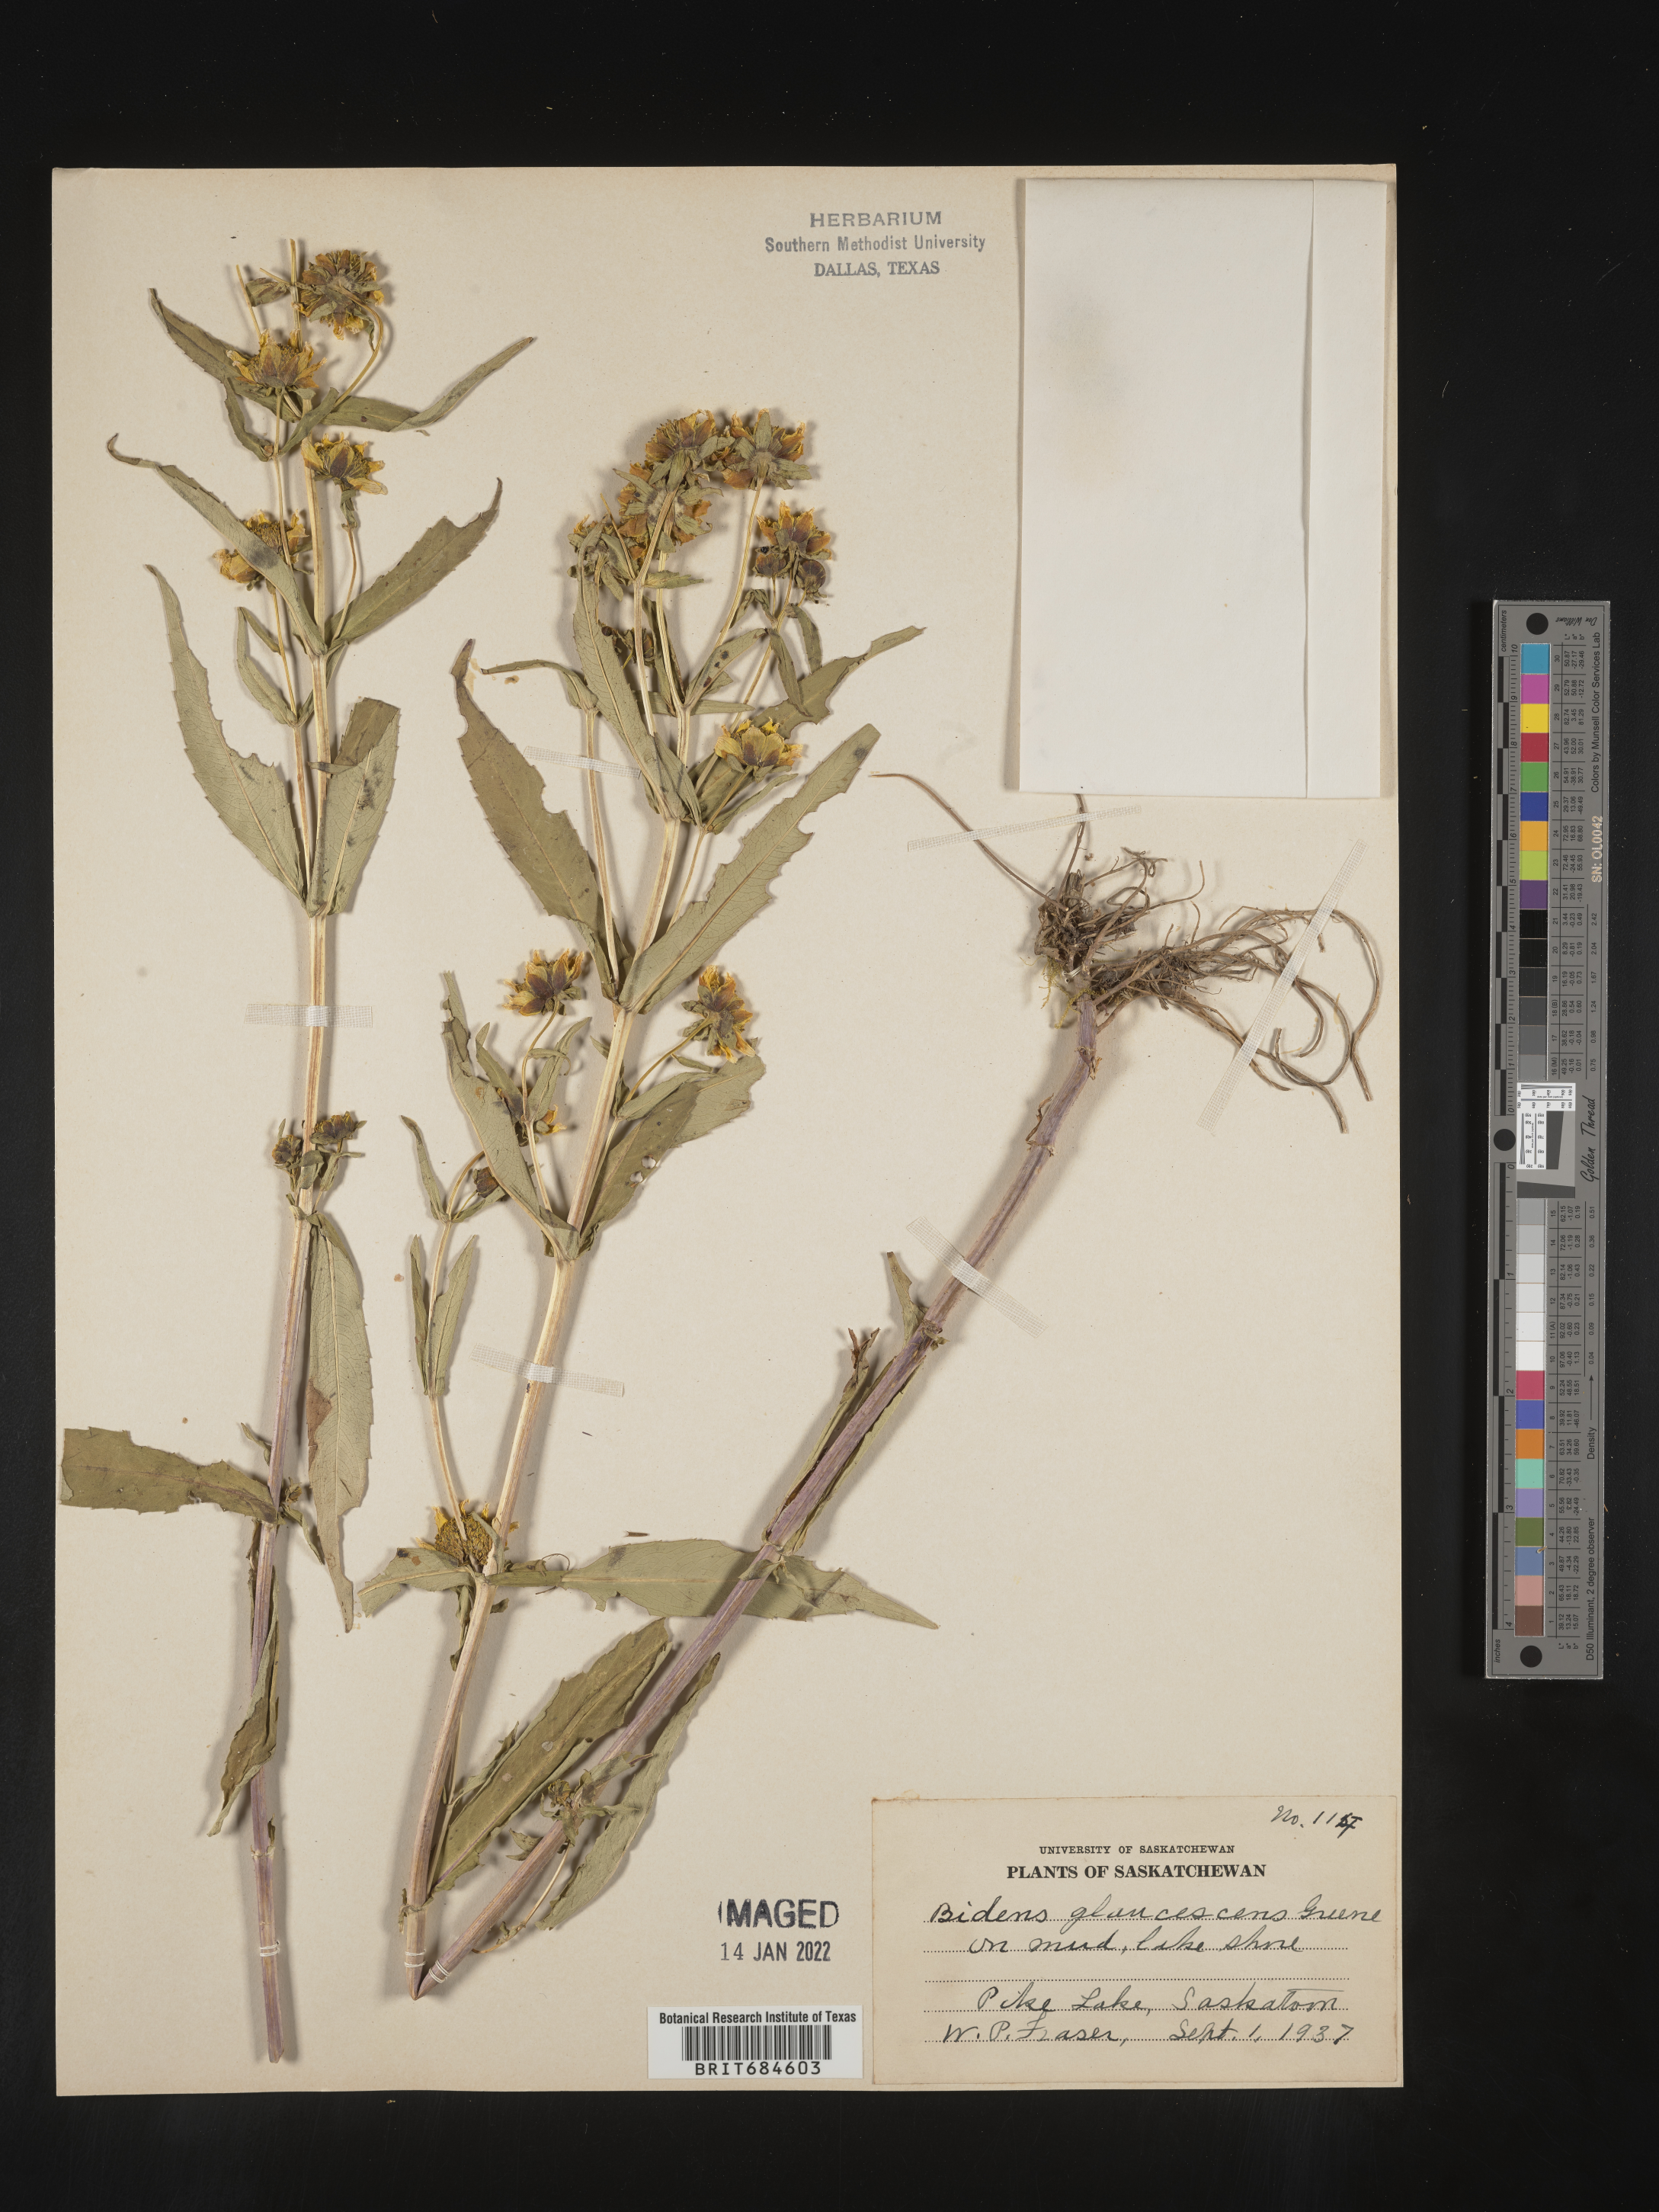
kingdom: Plantae
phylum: Tracheophyta
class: Magnoliopsida
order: Asterales
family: Asteraceae
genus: Bidens
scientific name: Bidens cernua
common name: Nodding bur-marigold
